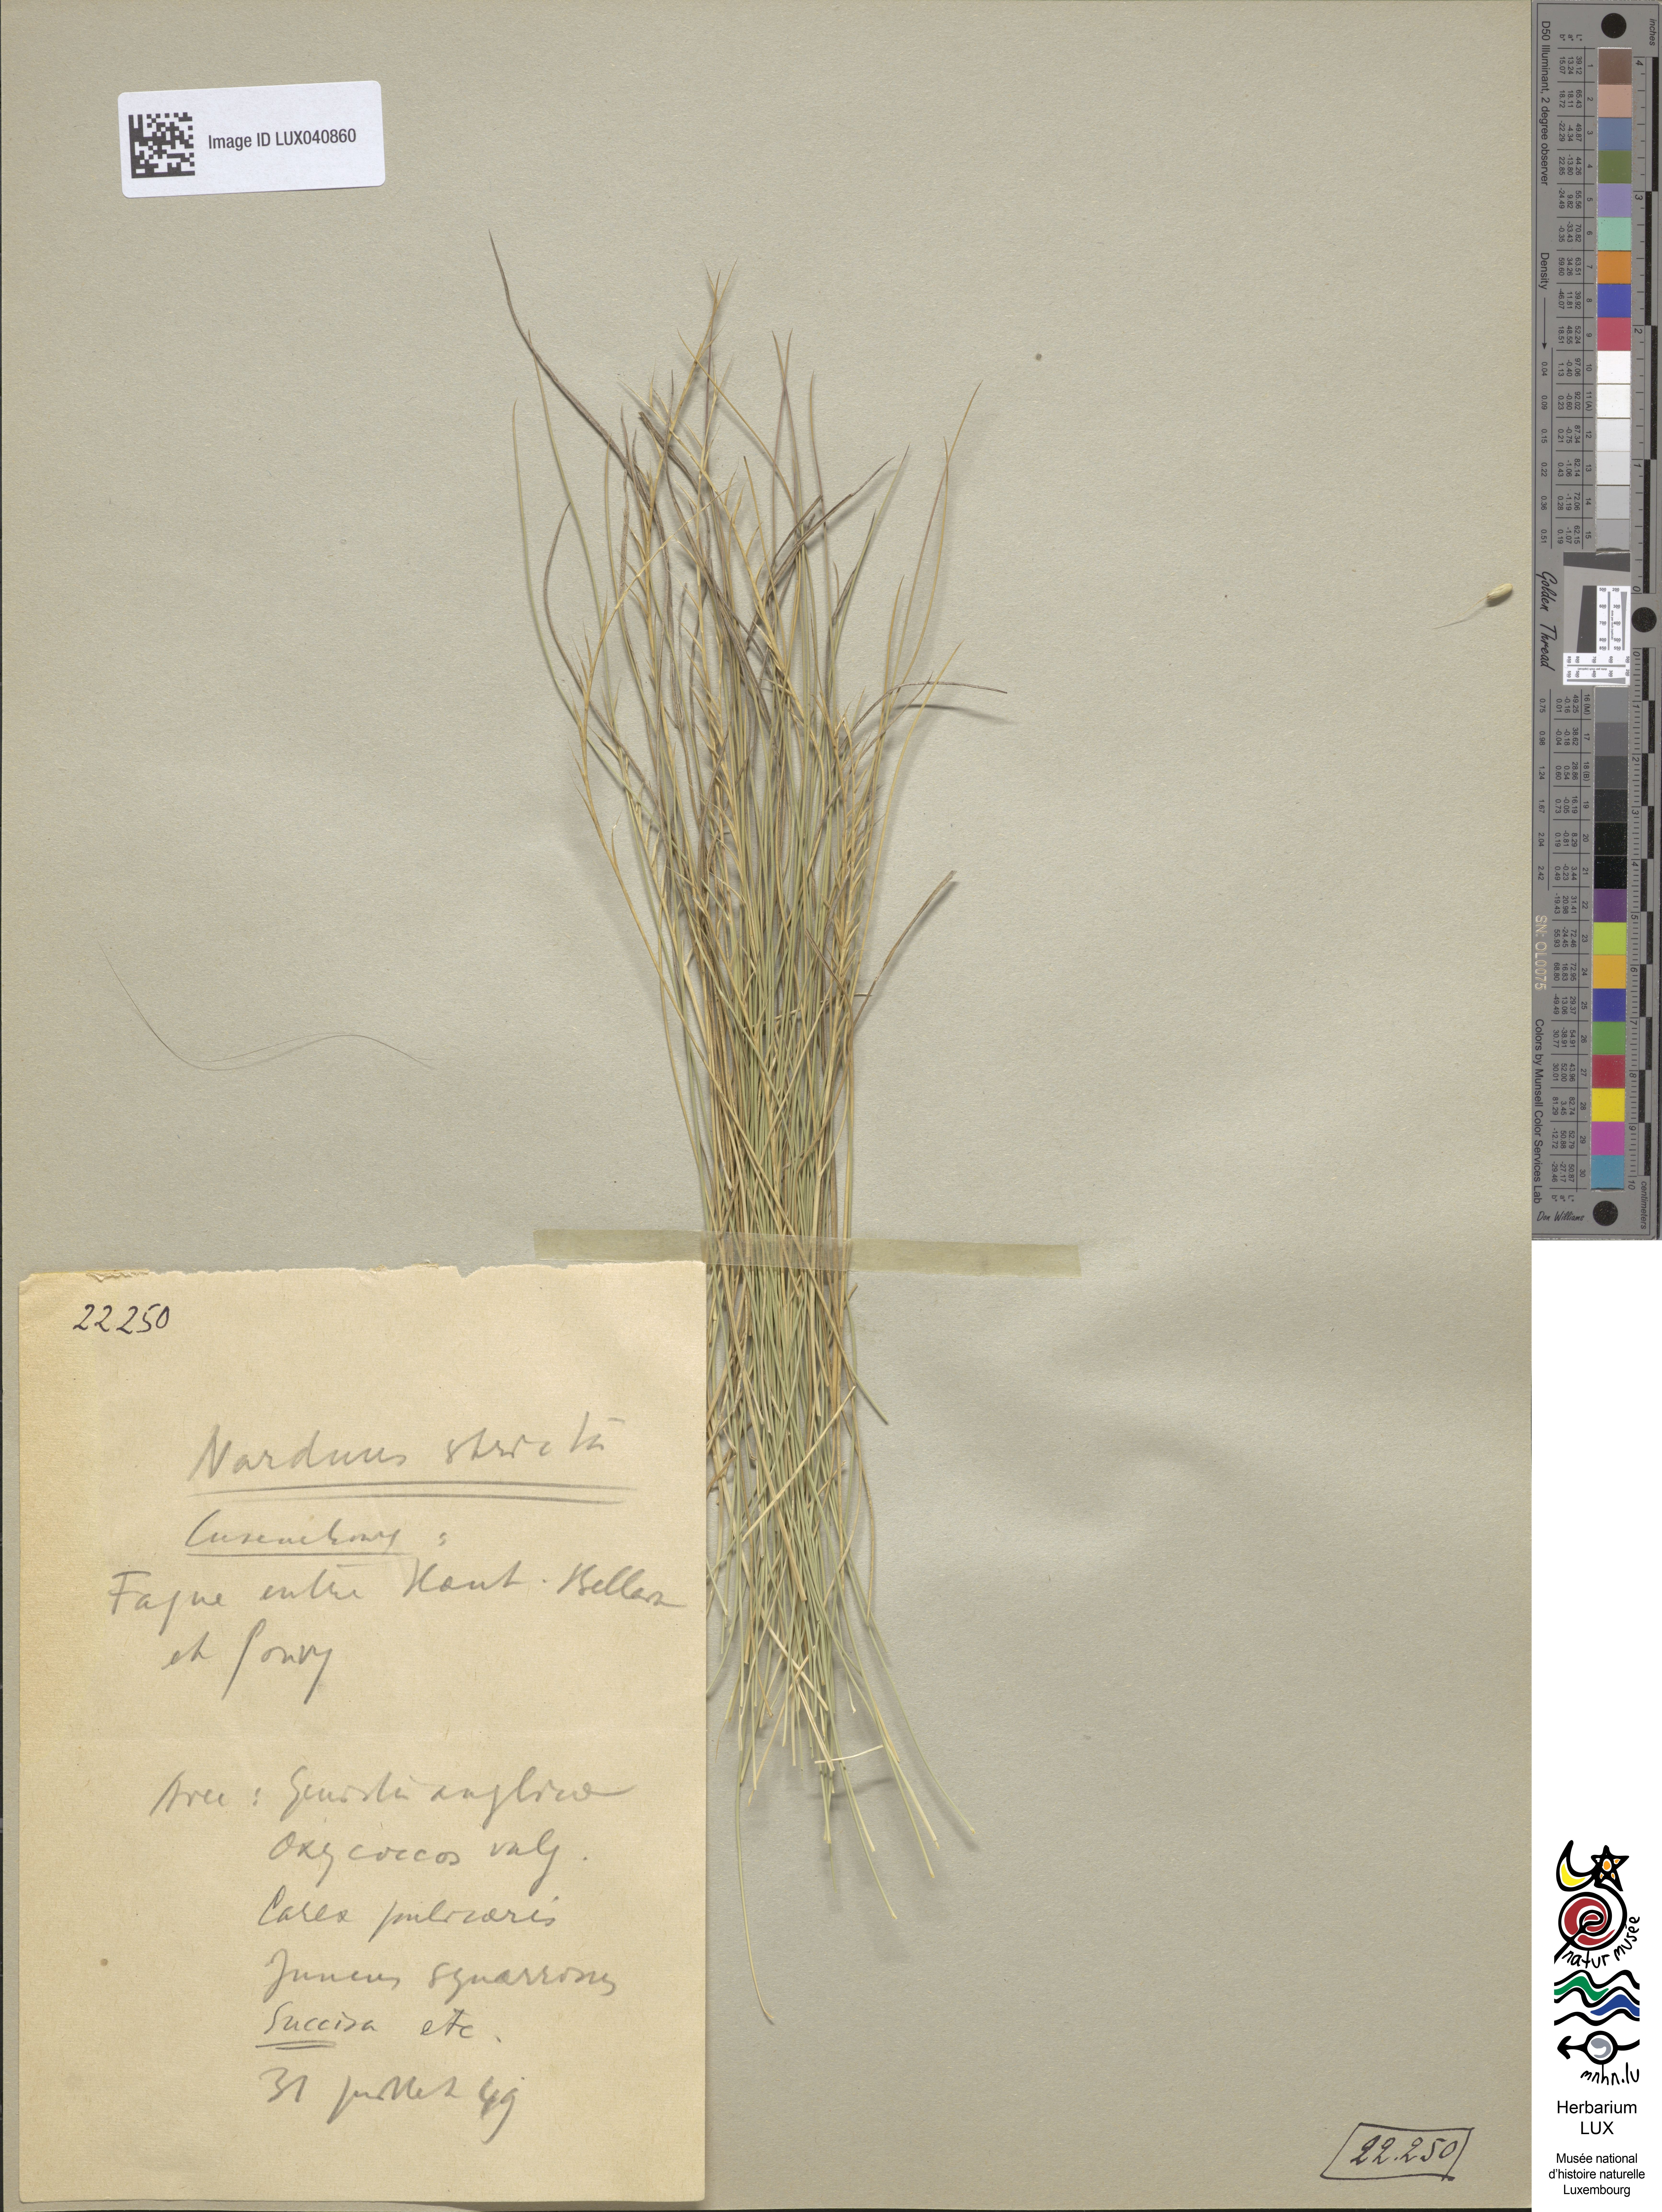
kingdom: Plantae
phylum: Tracheophyta
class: Liliopsida
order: Poales
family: Poaceae
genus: Nardus
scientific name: Nardus stricta
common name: Mat-grass
